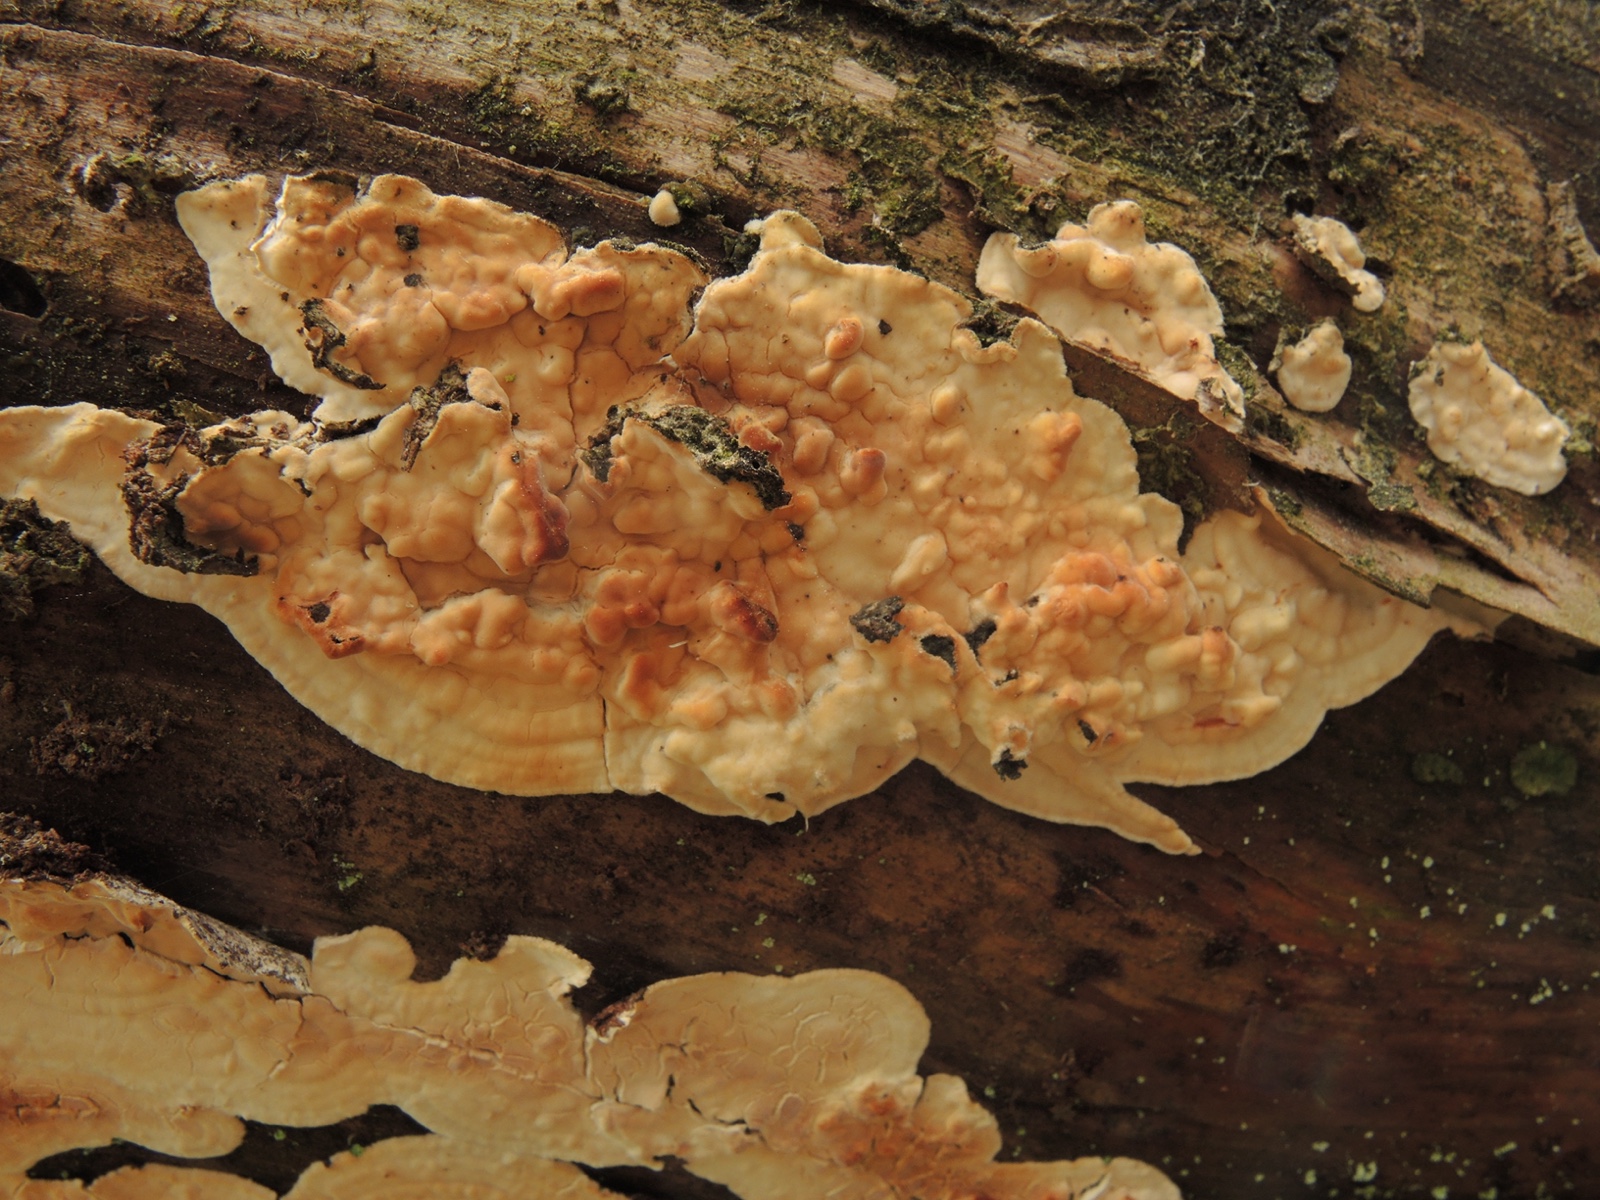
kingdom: Fungi
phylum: Basidiomycota
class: Agaricomycetes
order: Polyporales
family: Dacryobolaceae
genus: Dacryobolus
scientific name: Dacryobolus karstenii
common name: glat vulkanskorpe
